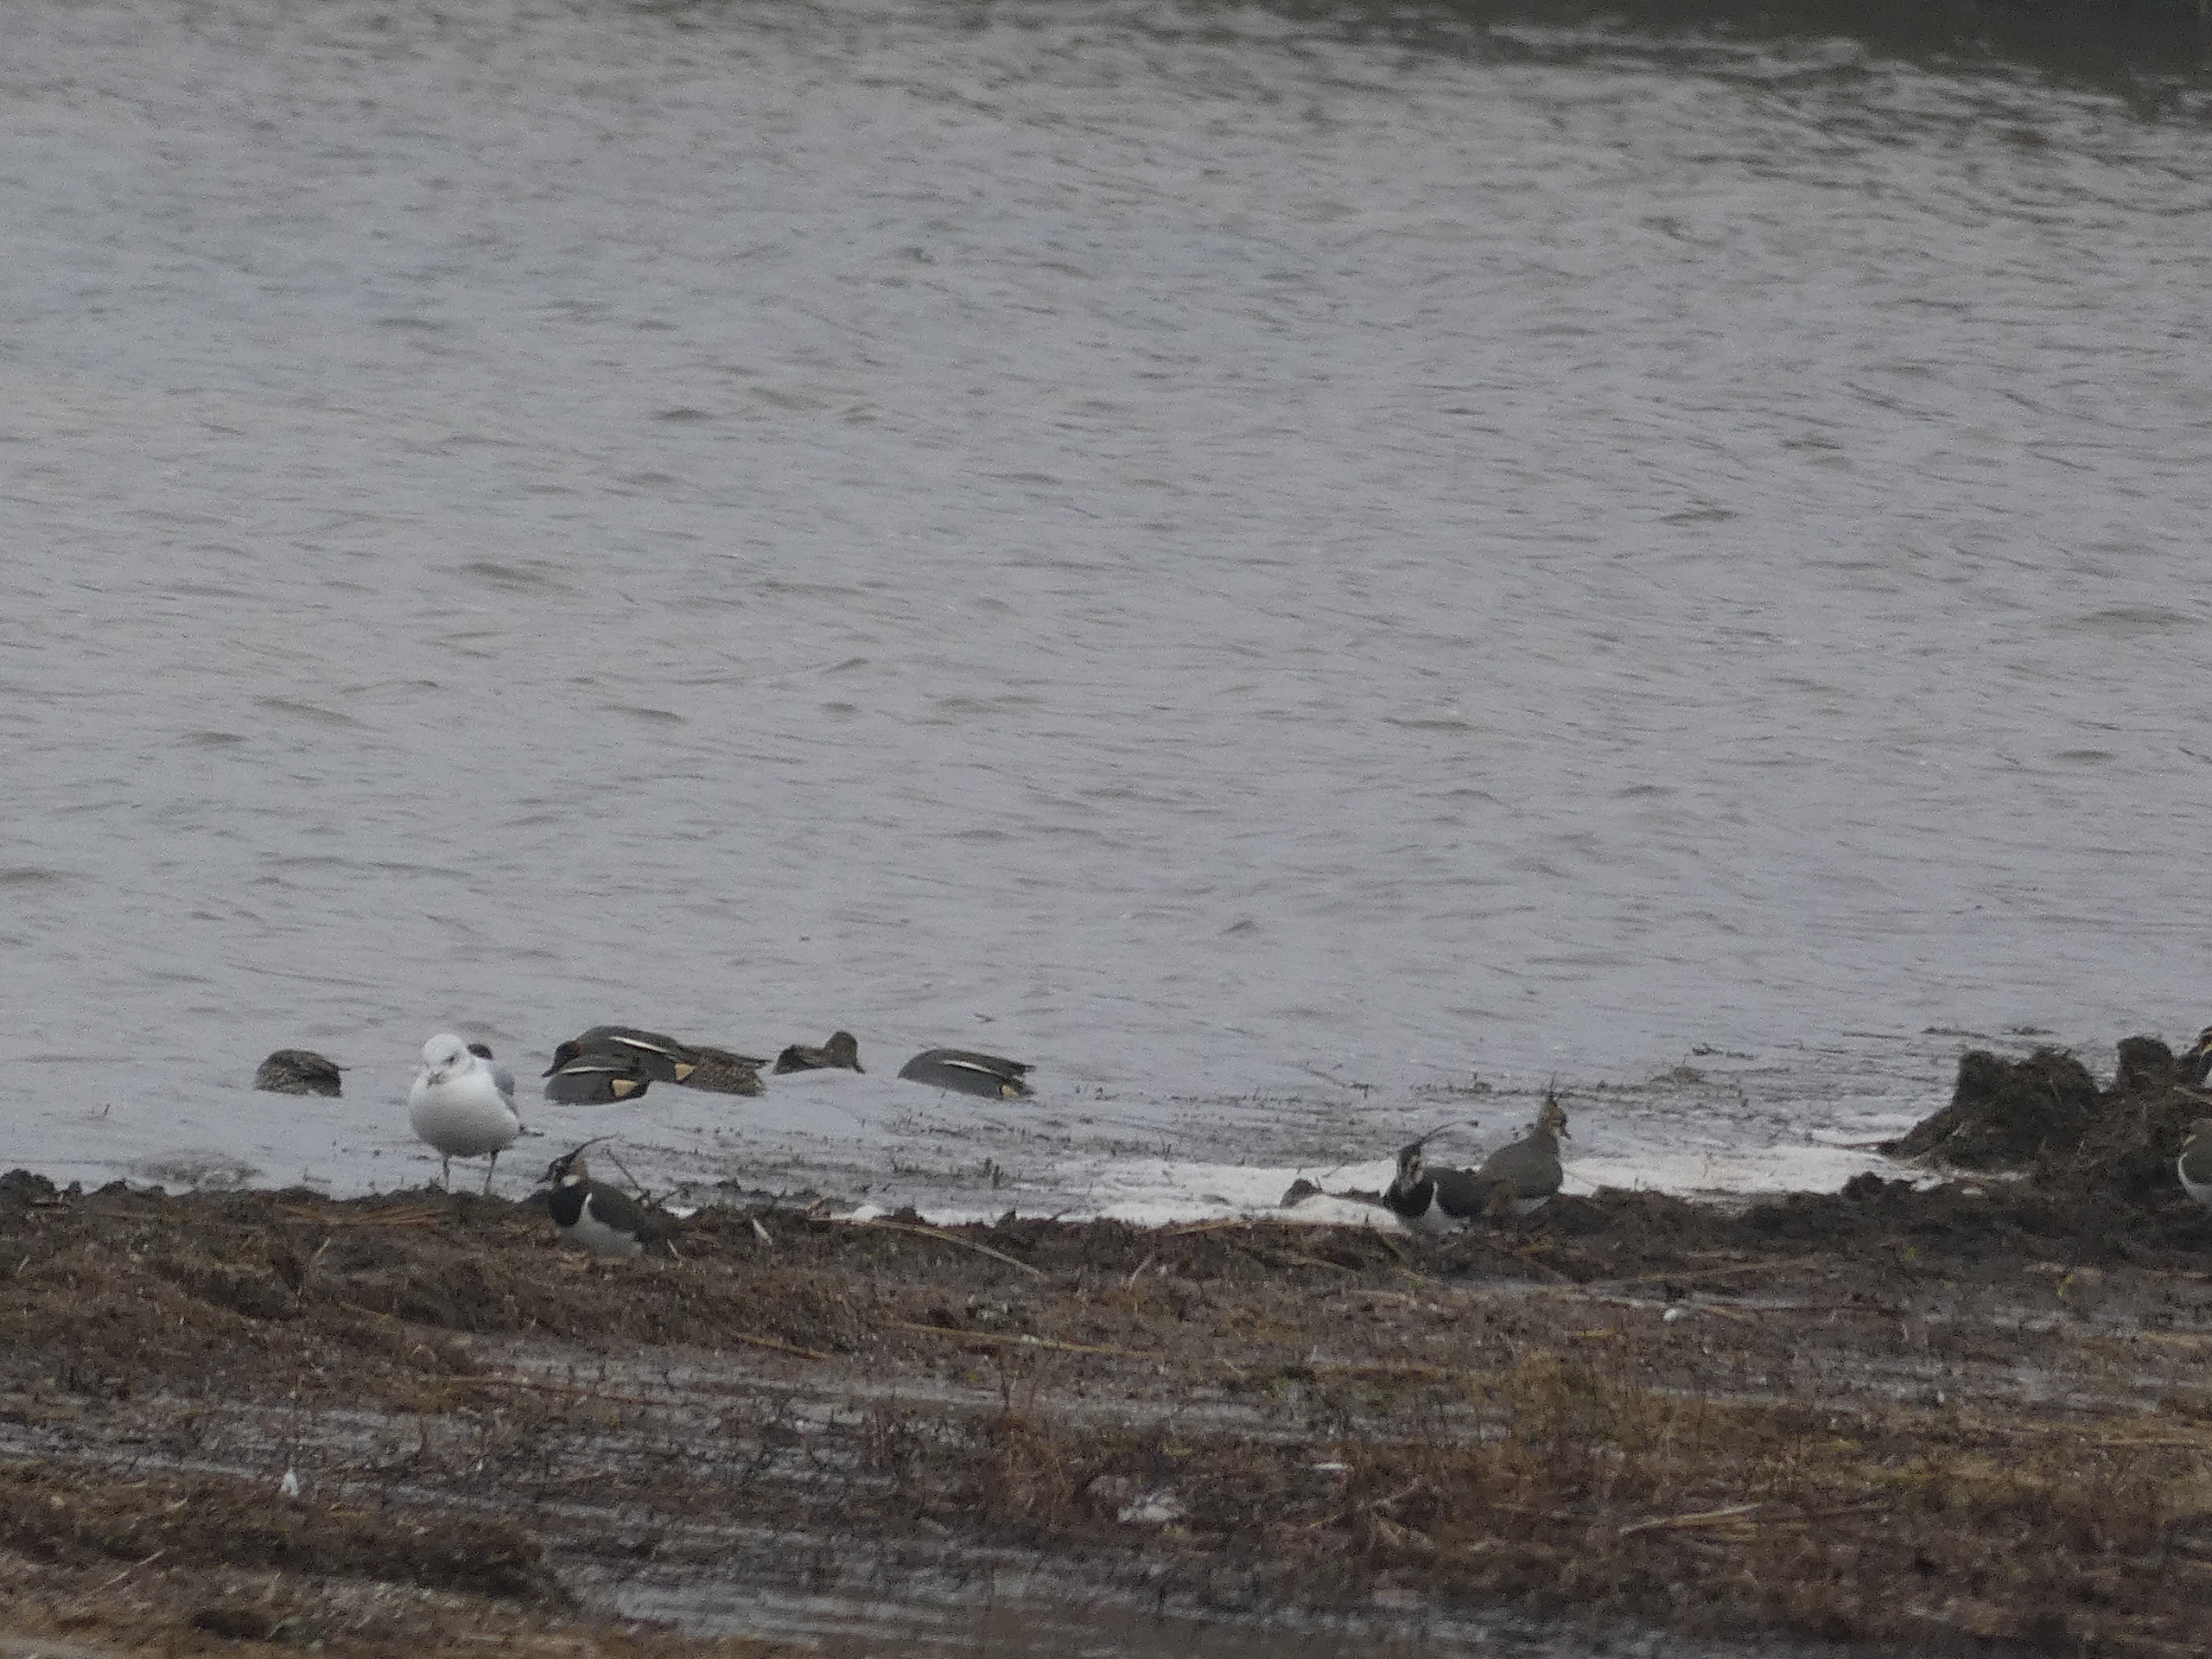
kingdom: Animalia
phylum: Chordata
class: Aves
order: Anseriformes
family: Anatidae
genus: Anas
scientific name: Anas crecca
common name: Krikand
